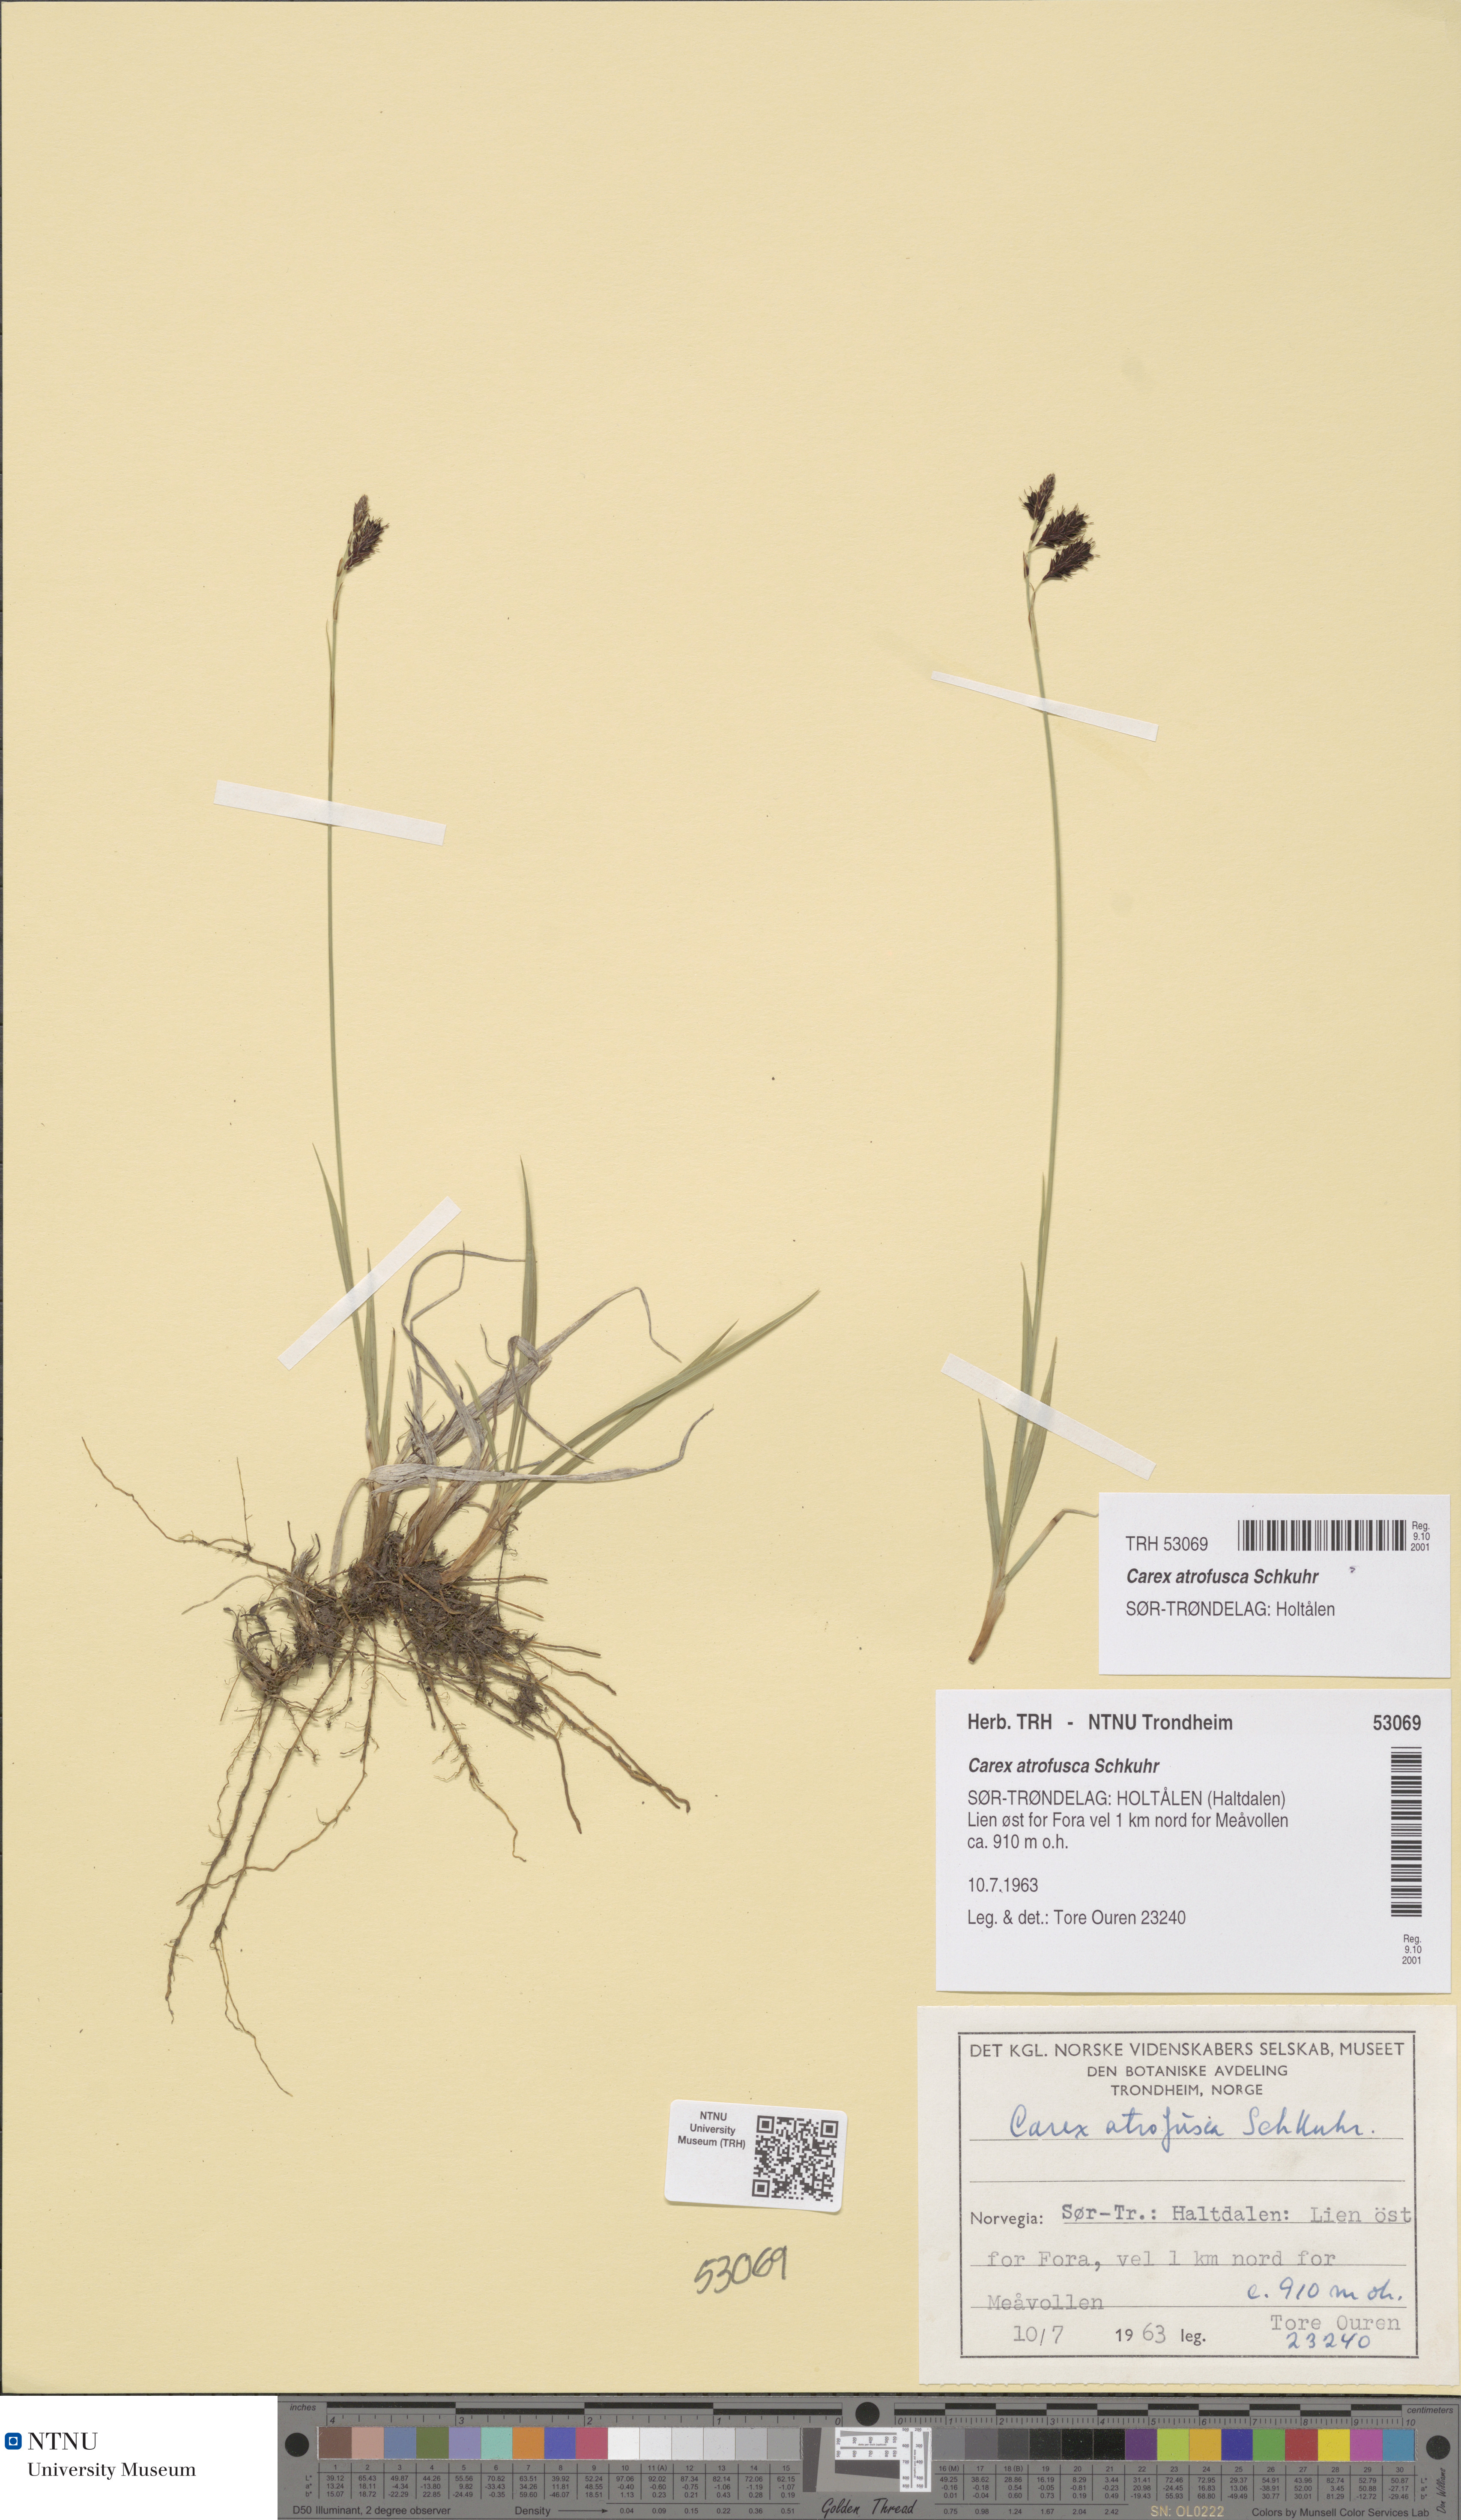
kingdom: Plantae
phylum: Tracheophyta
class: Liliopsida
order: Poales
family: Cyperaceae
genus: Carex
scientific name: Carex atrofusca
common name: Scorched alpine-sedge
